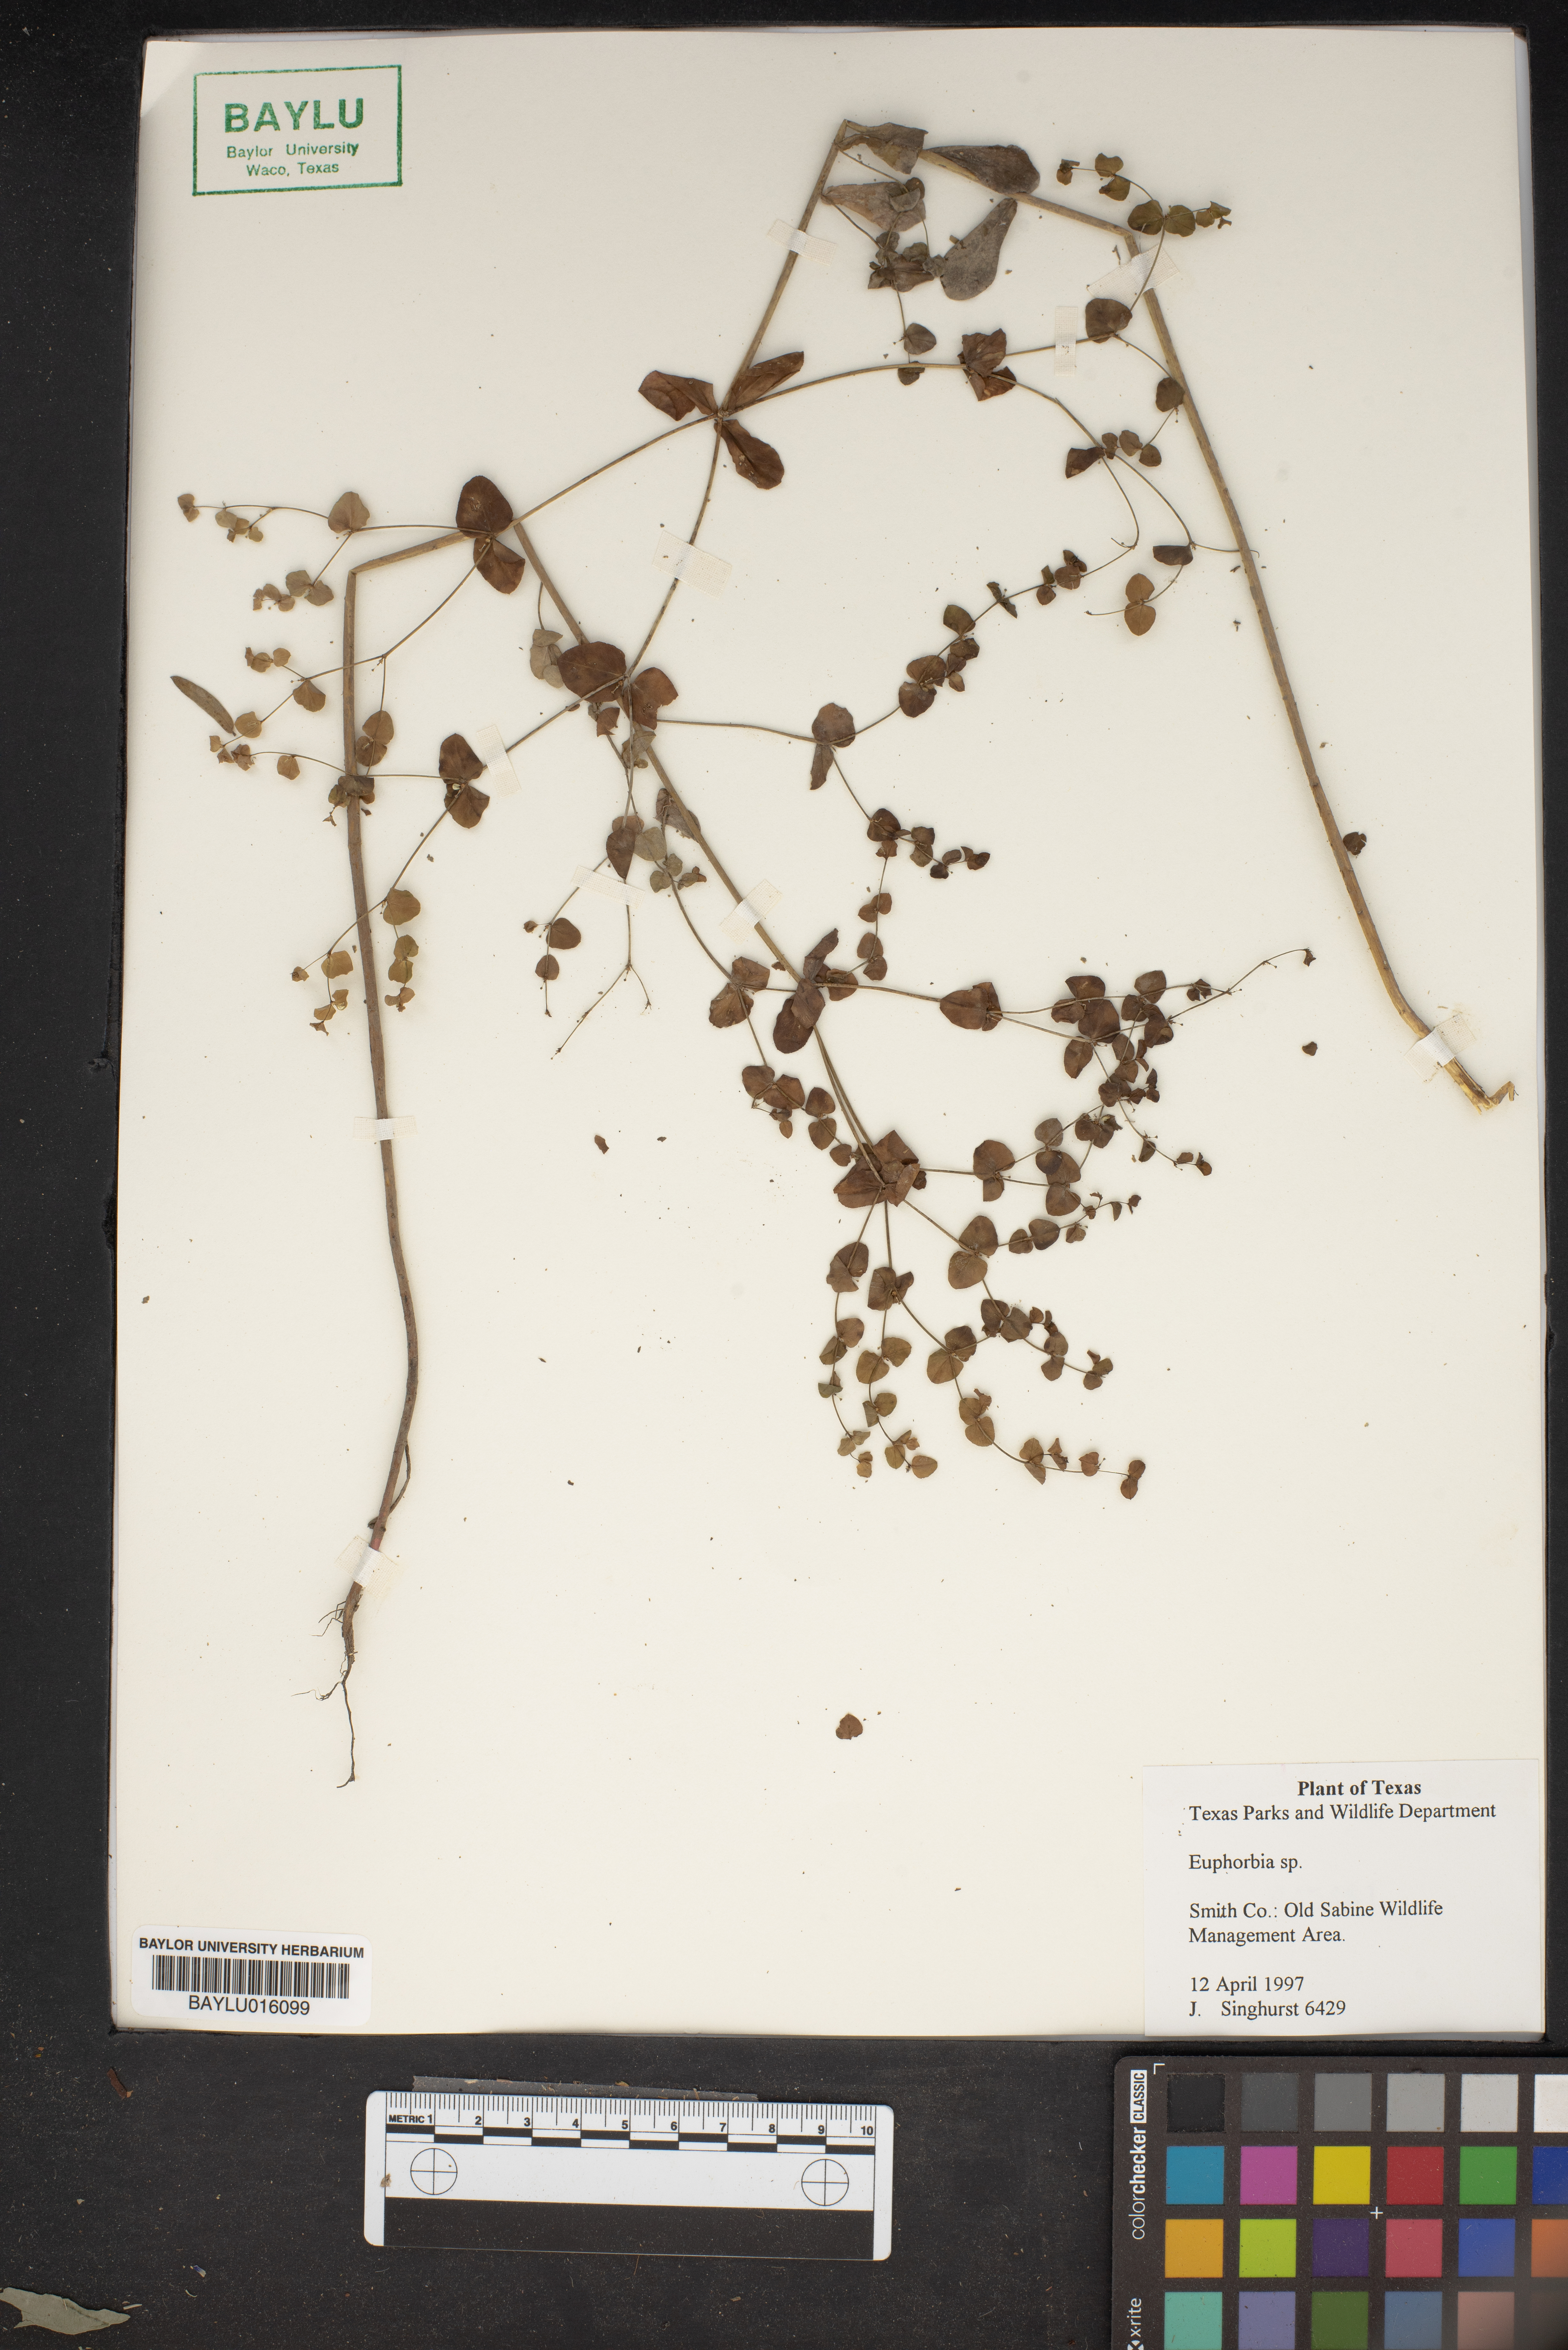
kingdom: Plantae
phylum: Tracheophyta
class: Magnoliopsida
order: Malpighiales
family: Euphorbiaceae
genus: Euphorbia
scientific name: Euphorbia
